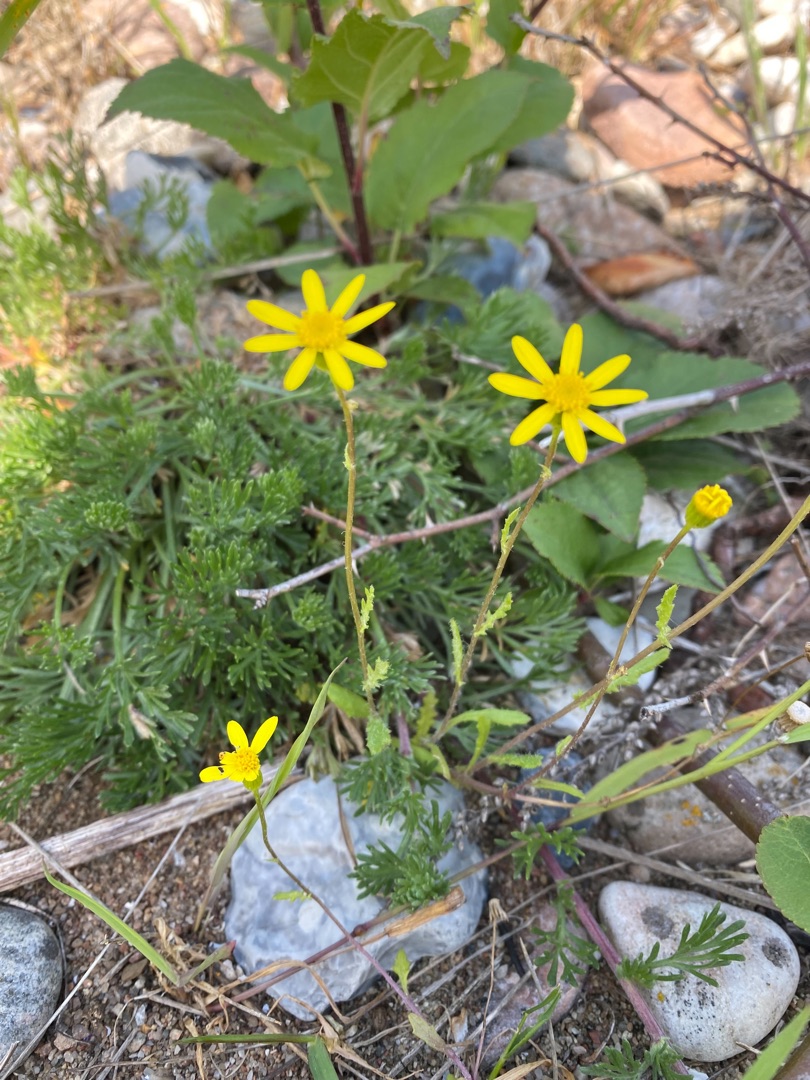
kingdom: Plantae
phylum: Tracheophyta
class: Magnoliopsida
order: Asterales
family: Asteraceae
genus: Senecio
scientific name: Senecio leucanthemifolius
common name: Vår-brandbæger
